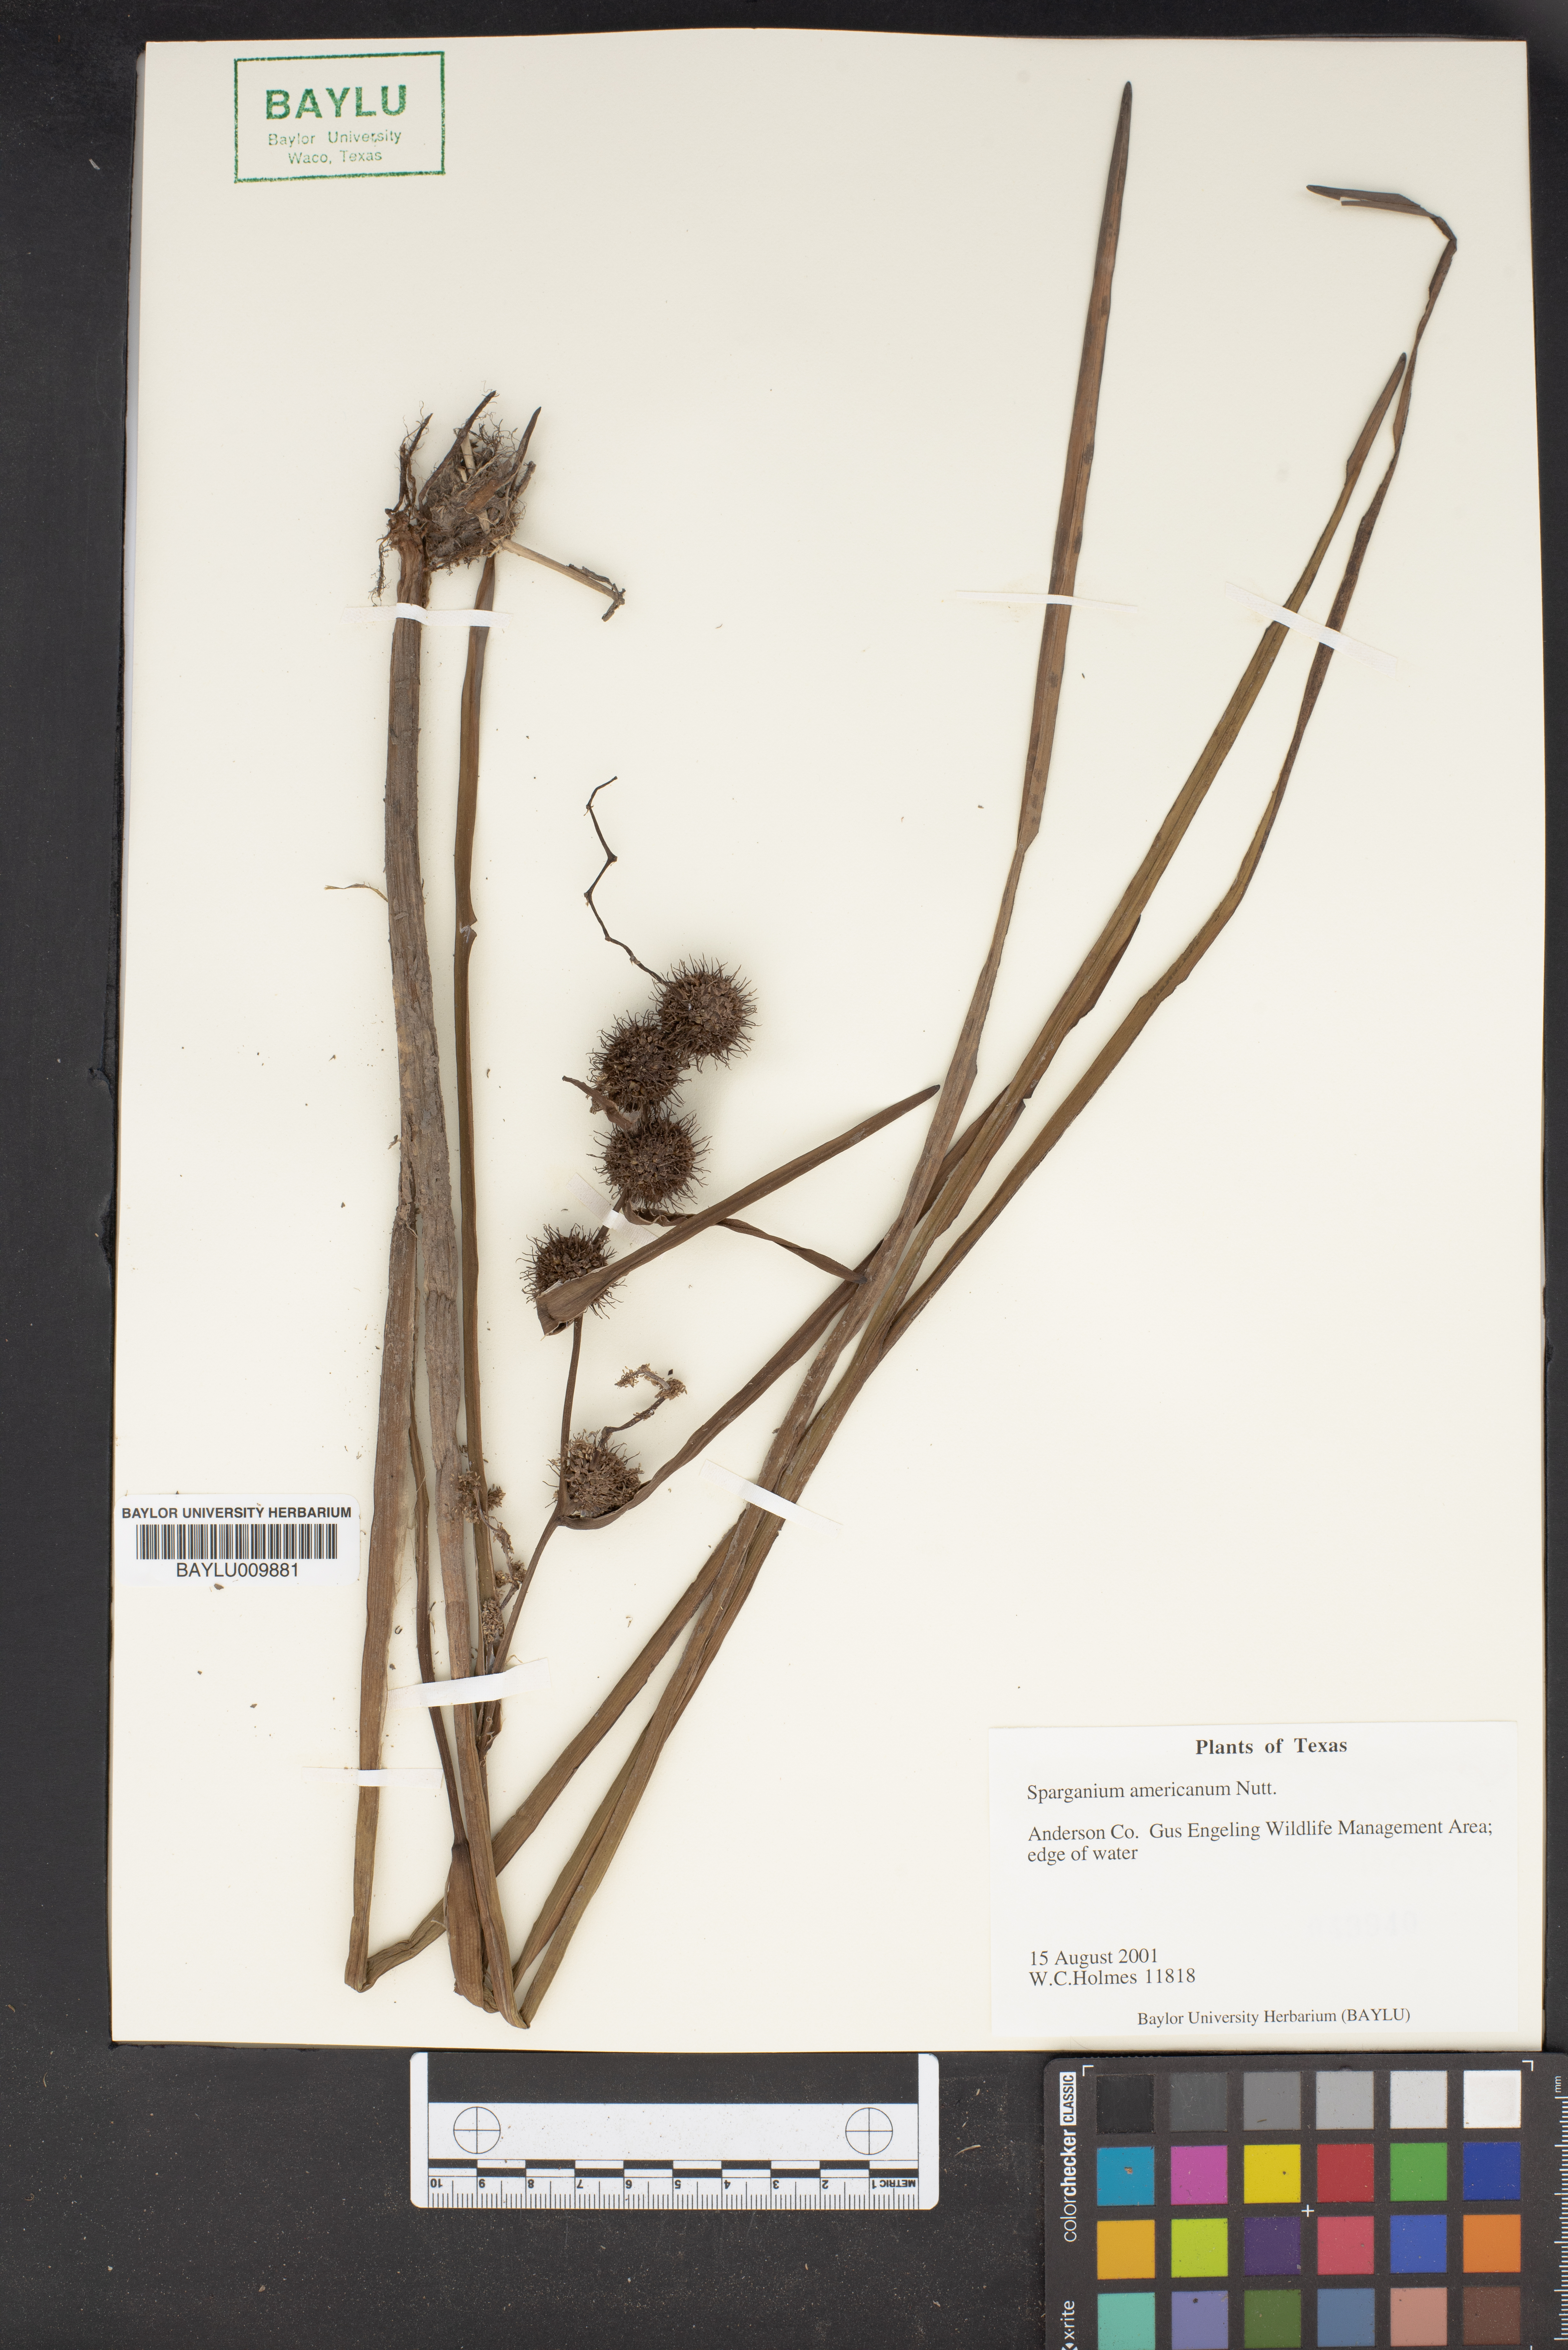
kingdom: Plantae
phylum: Tracheophyta
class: Liliopsida
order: Poales
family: Typhaceae
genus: Sparganium
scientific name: Sparganium americanum
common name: American burreed
